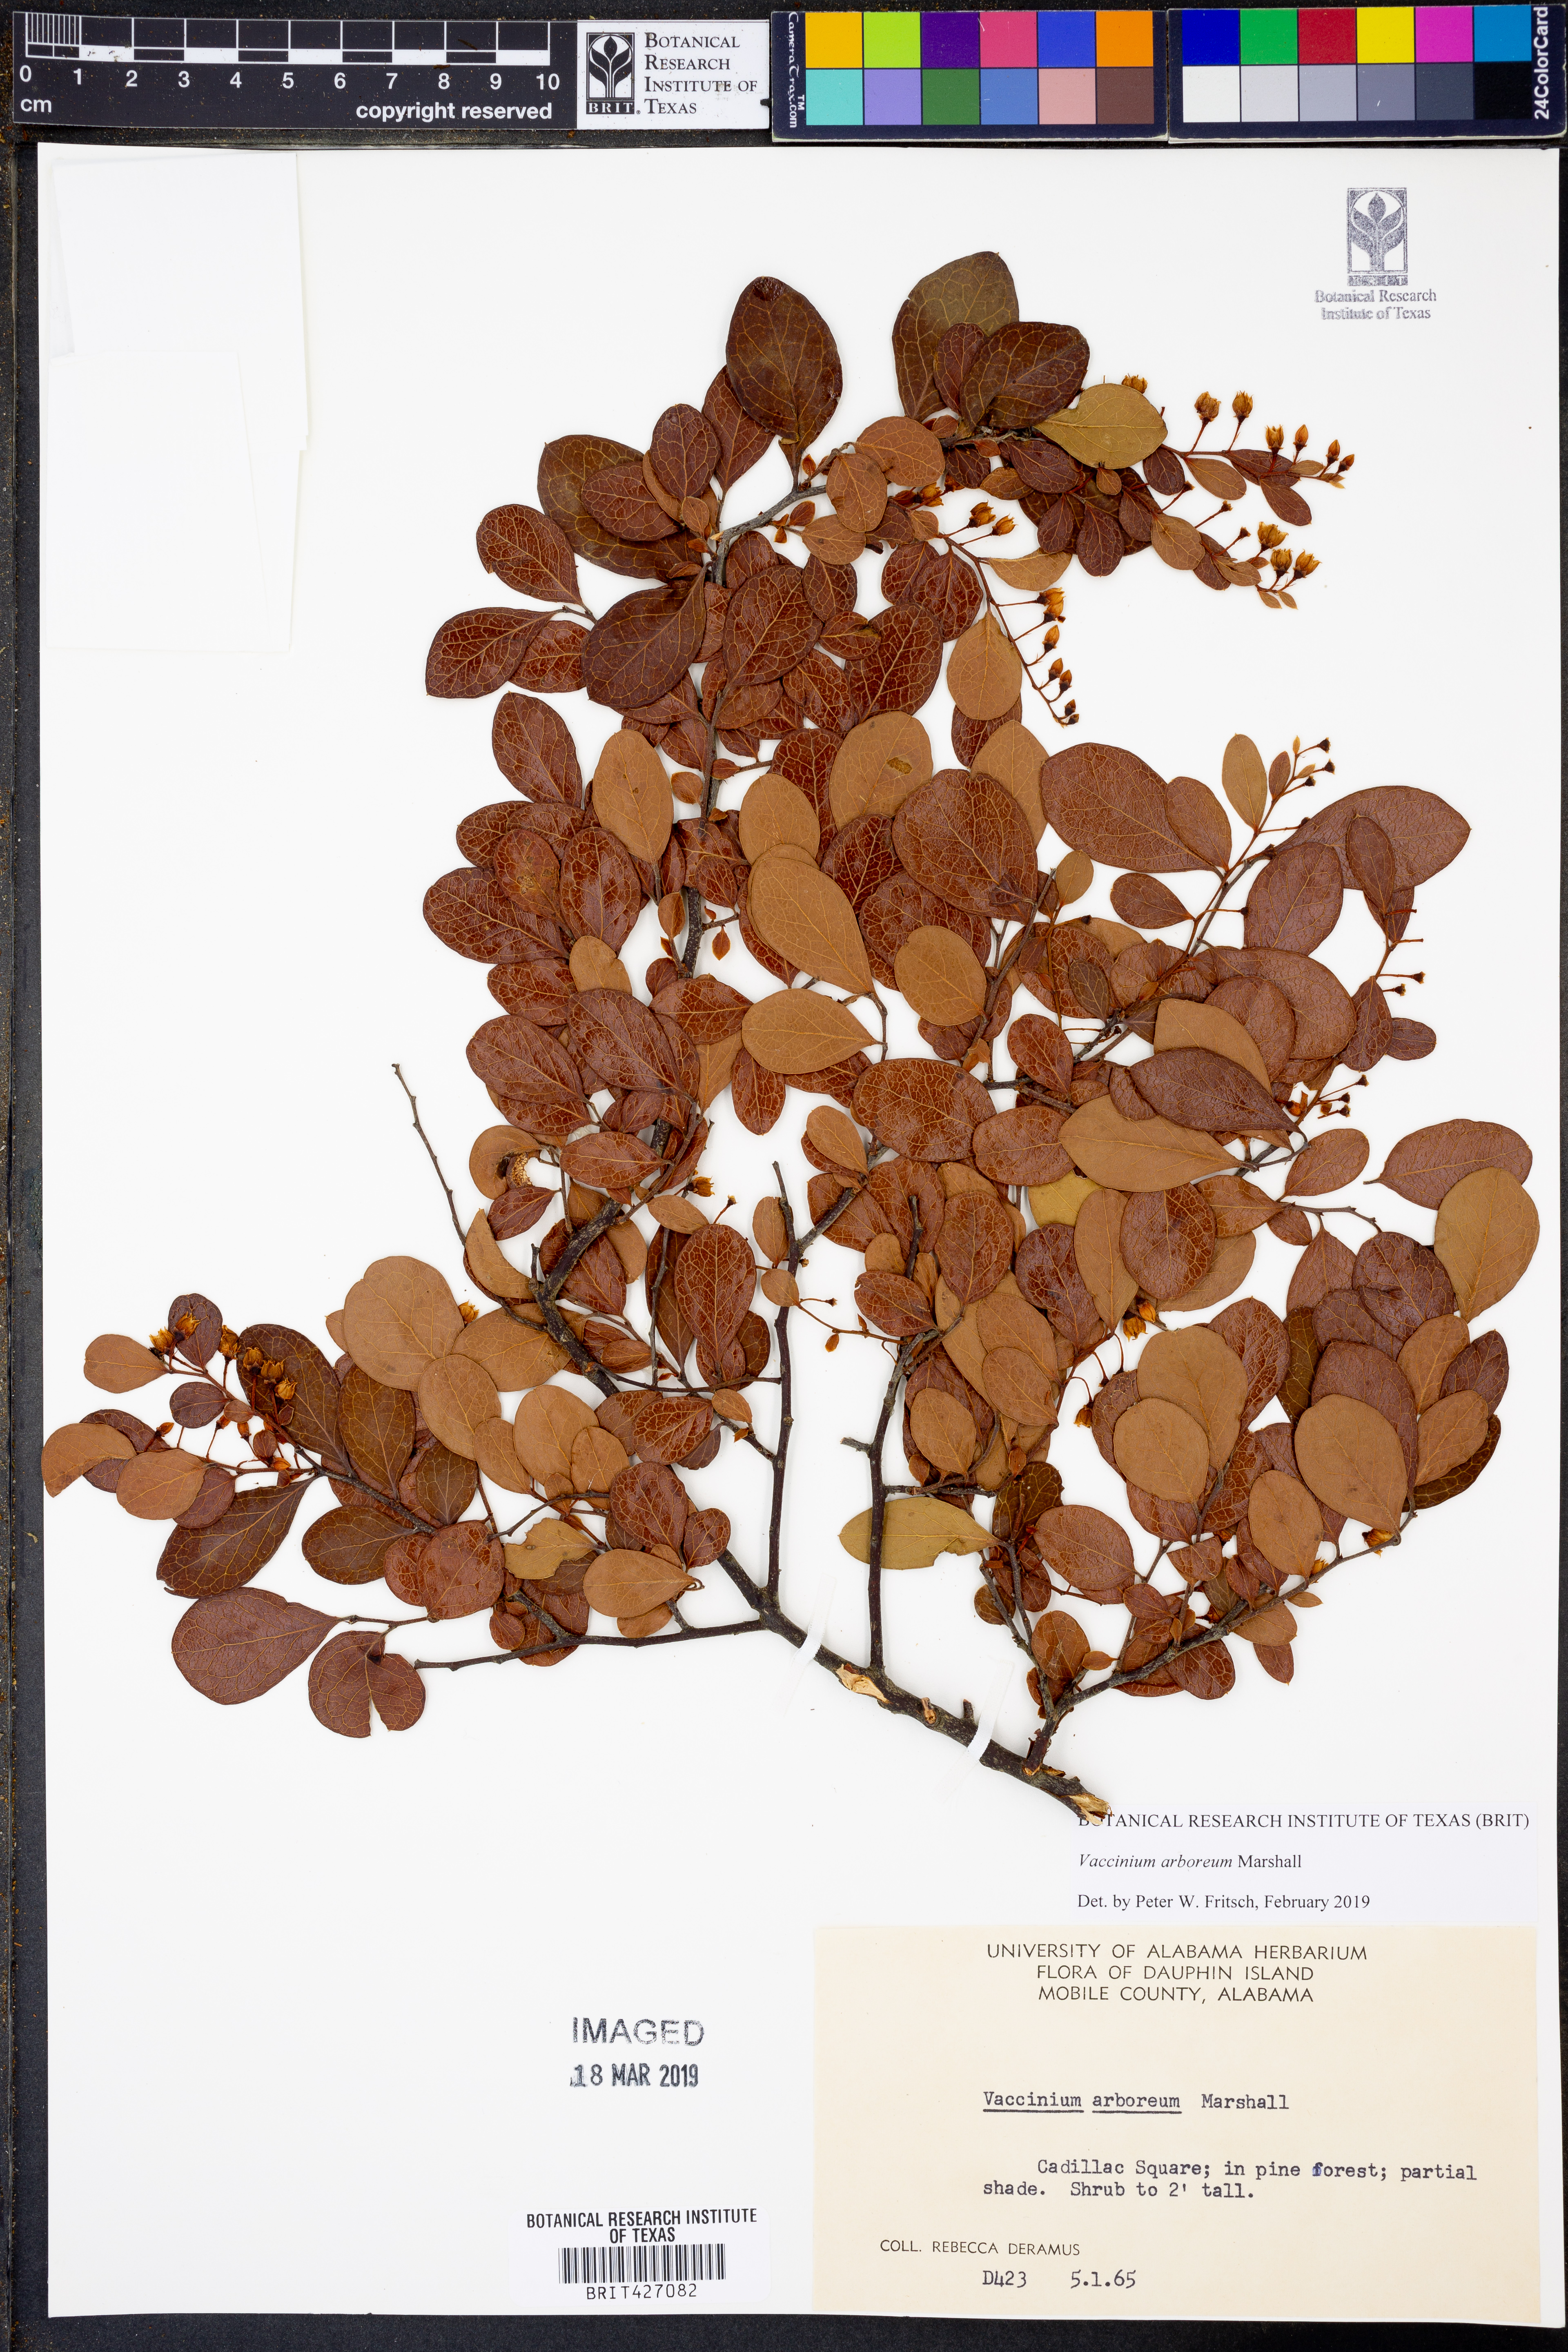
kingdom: Plantae
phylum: Tracheophyta
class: Magnoliopsida
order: Ericales
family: Ericaceae
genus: Vaccinium
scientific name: Vaccinium arboreum
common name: Farkleberry
